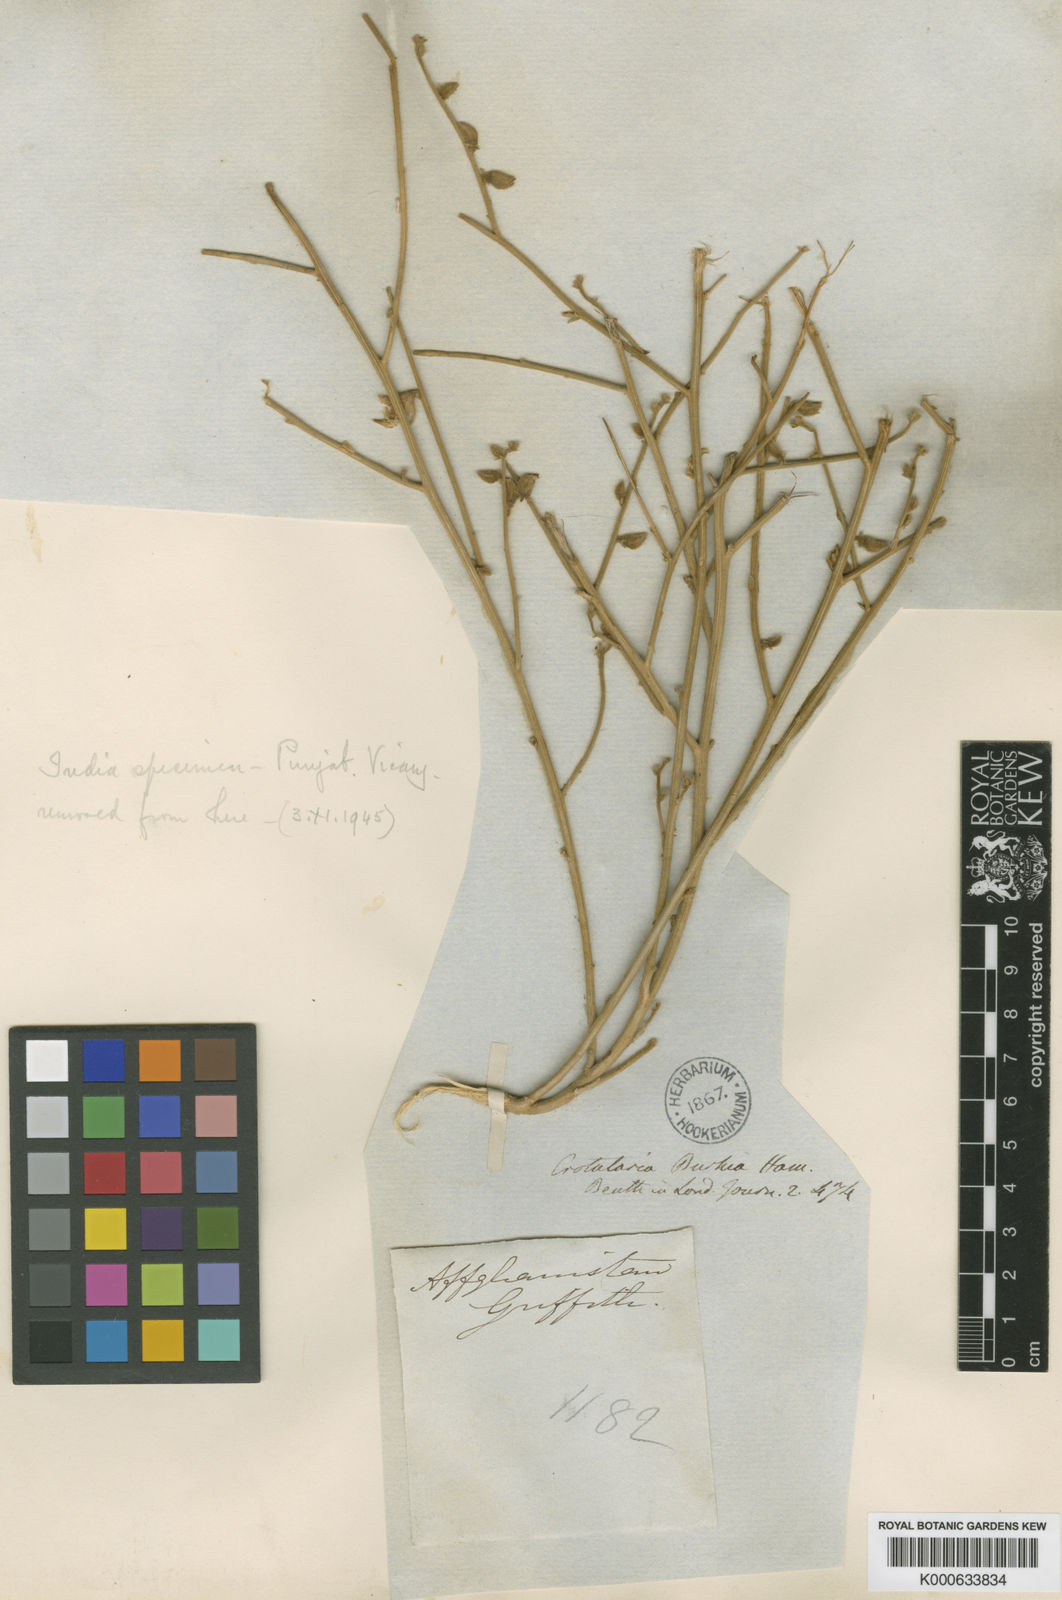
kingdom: Plantae
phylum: Tracheophyta
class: Magnoliopsida
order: Fabales
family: Fabaceae
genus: Crotalaria
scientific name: Crotalaria
